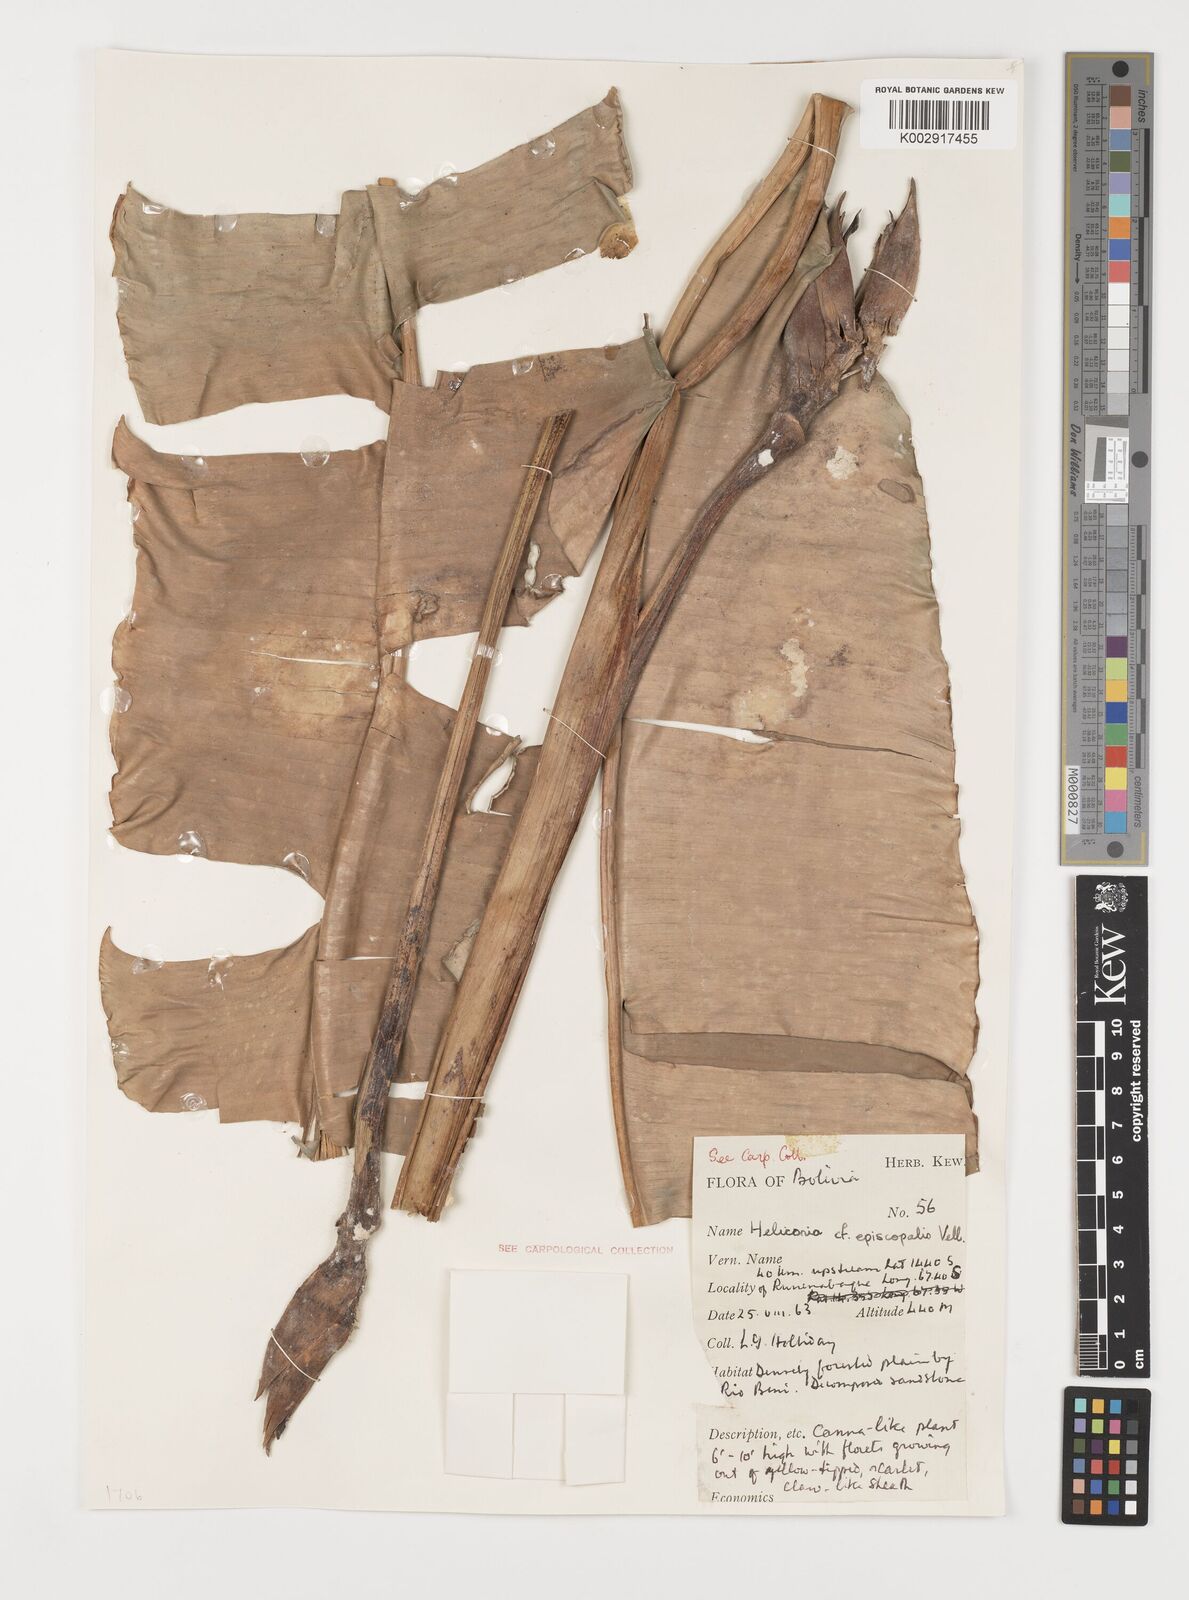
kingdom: Plantae
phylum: Tracheophyta
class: Liliopsida
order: Zingiberales
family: Heliconiaceae
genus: Heliconia
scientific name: Heliconia episcopalis
